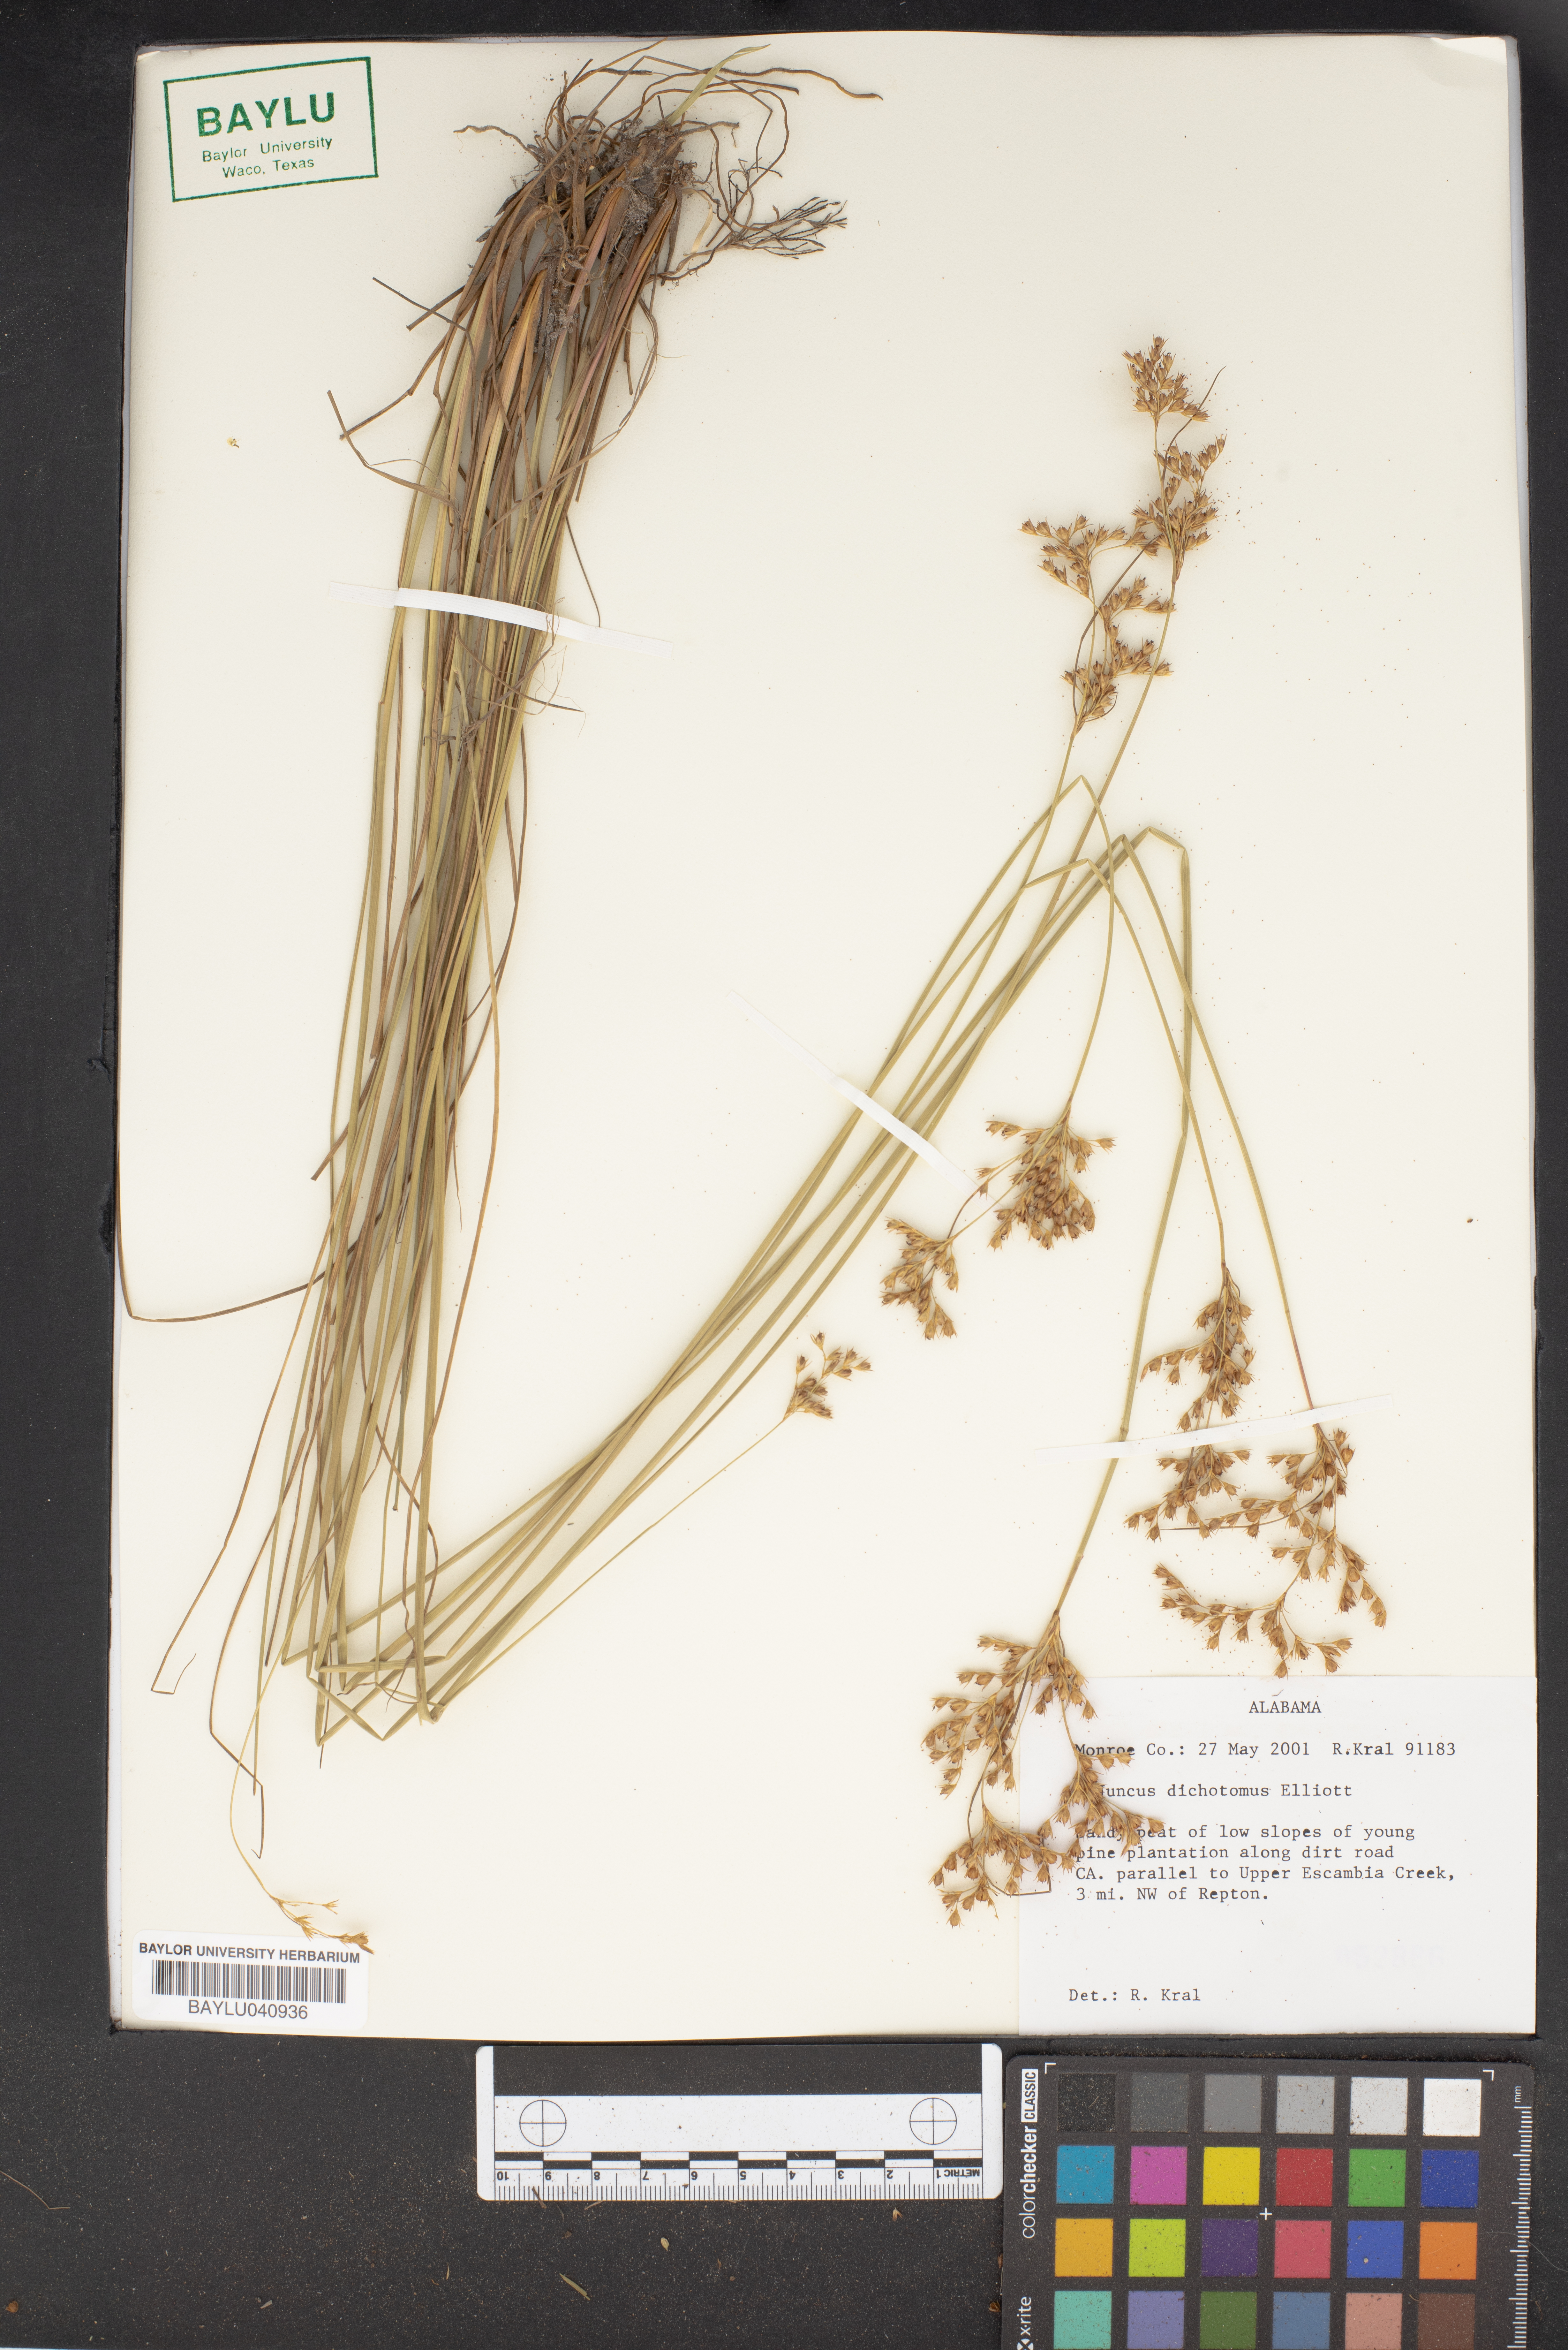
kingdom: Plantae
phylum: Tracheophyta
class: Liliopsida
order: Poales
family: Juncaceae
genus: Juncus
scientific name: Juncus dichotomus
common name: Forked rush
